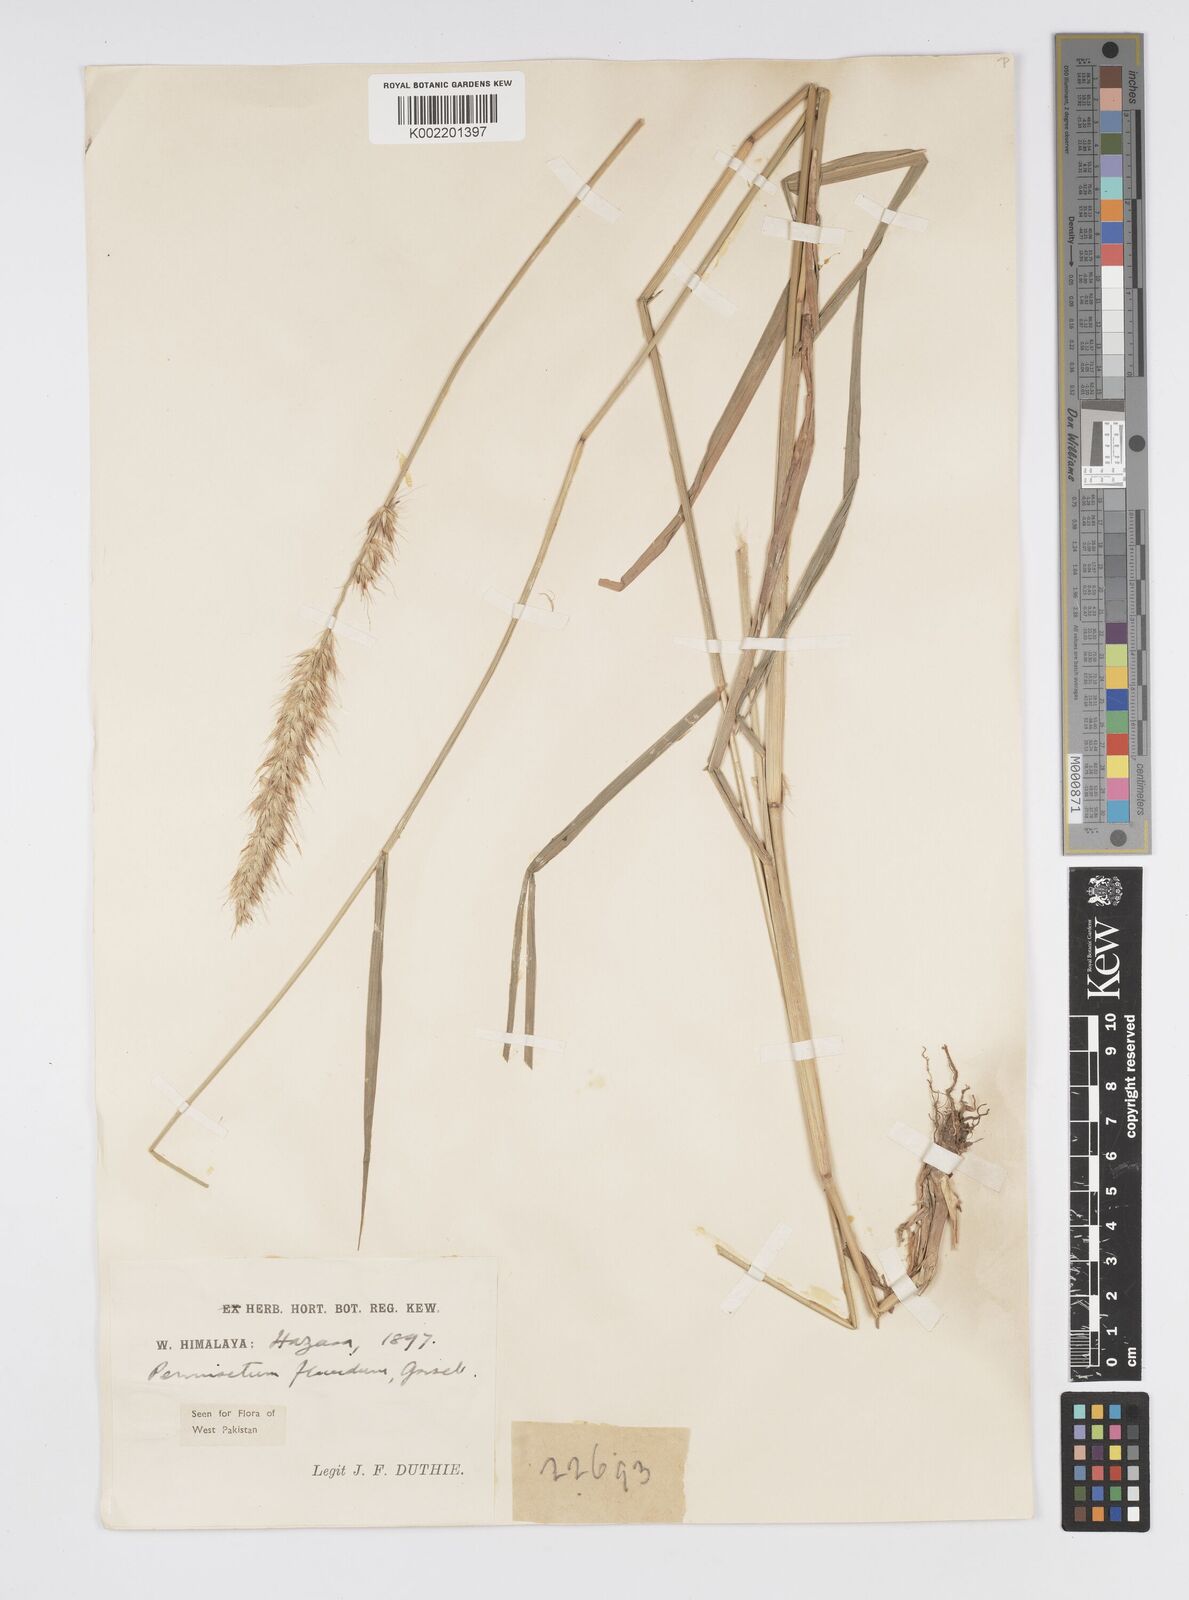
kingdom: Plantae
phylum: Tracheophyta
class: Liliopsida
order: Poales
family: Poaceae
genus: Cenchrus
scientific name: Cenchrus flaccidus
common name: Flaccid grass
